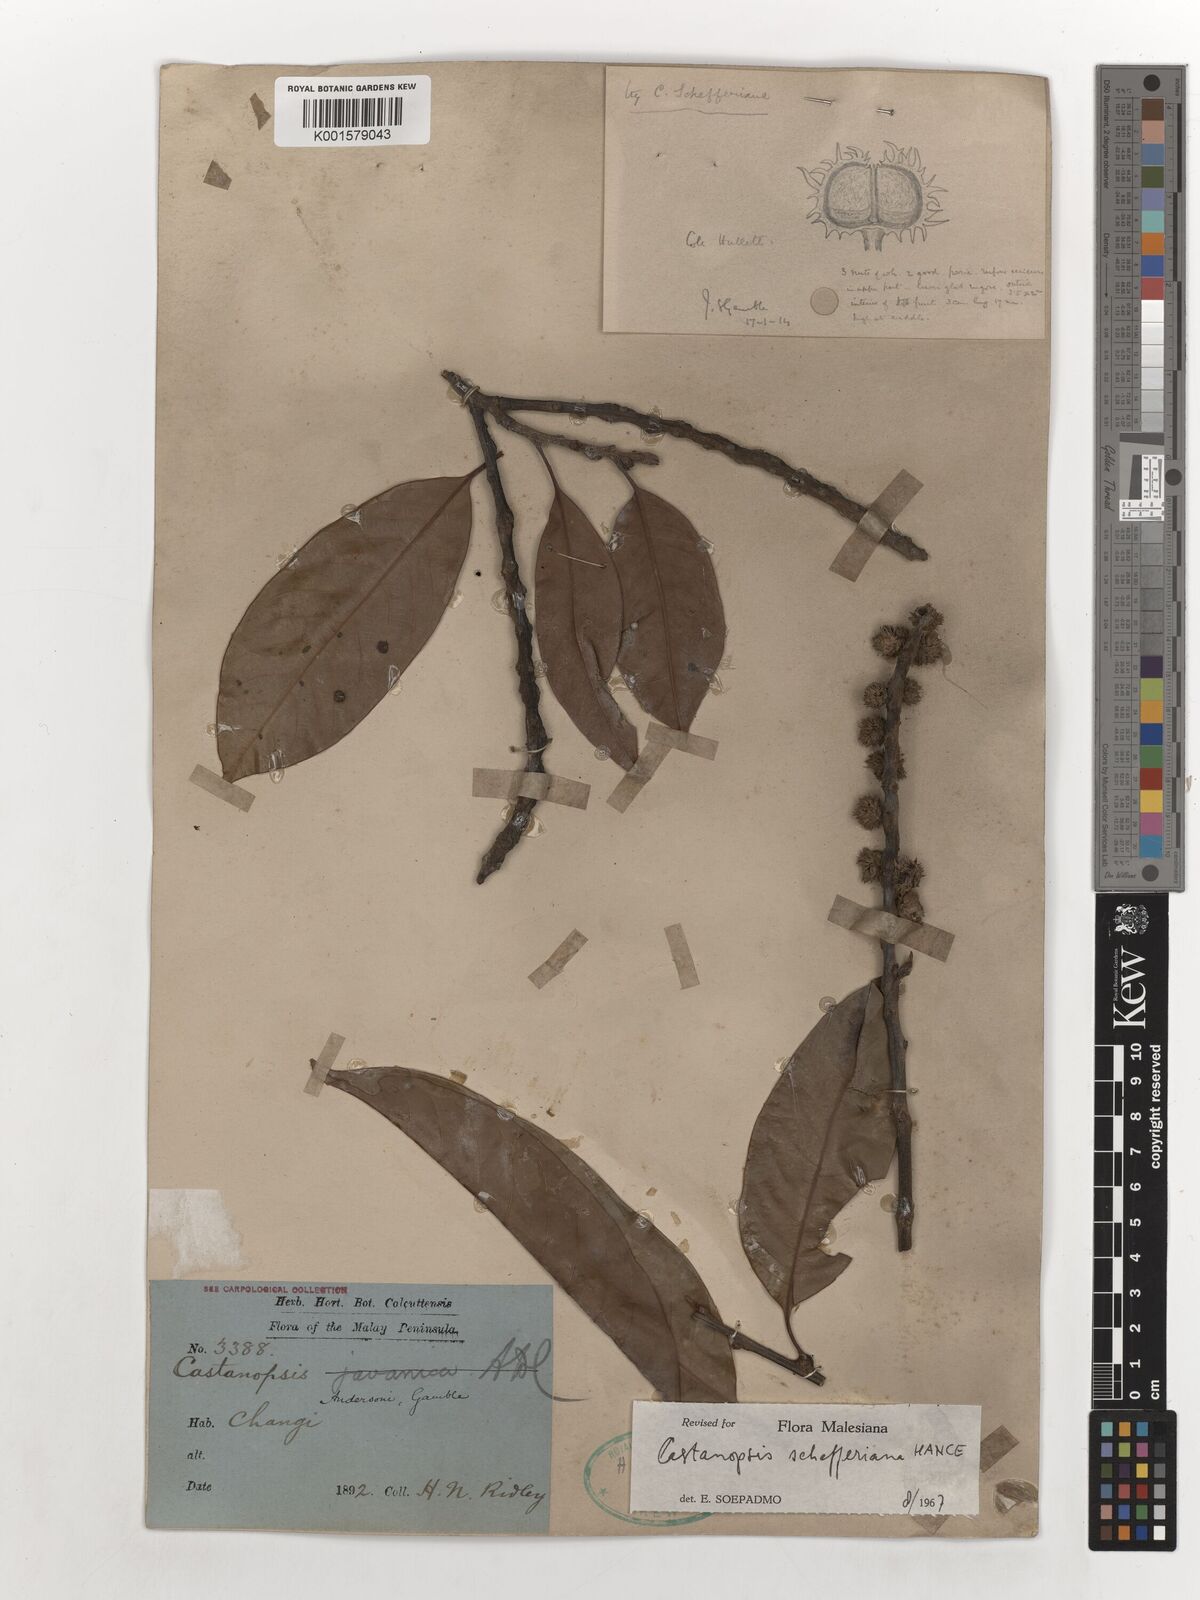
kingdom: Plantae
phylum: Tracheophyta
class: Magnoliopsida
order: Fagales
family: Fagaceae
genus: Castanopsis
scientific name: Castanopsis schefferiana
